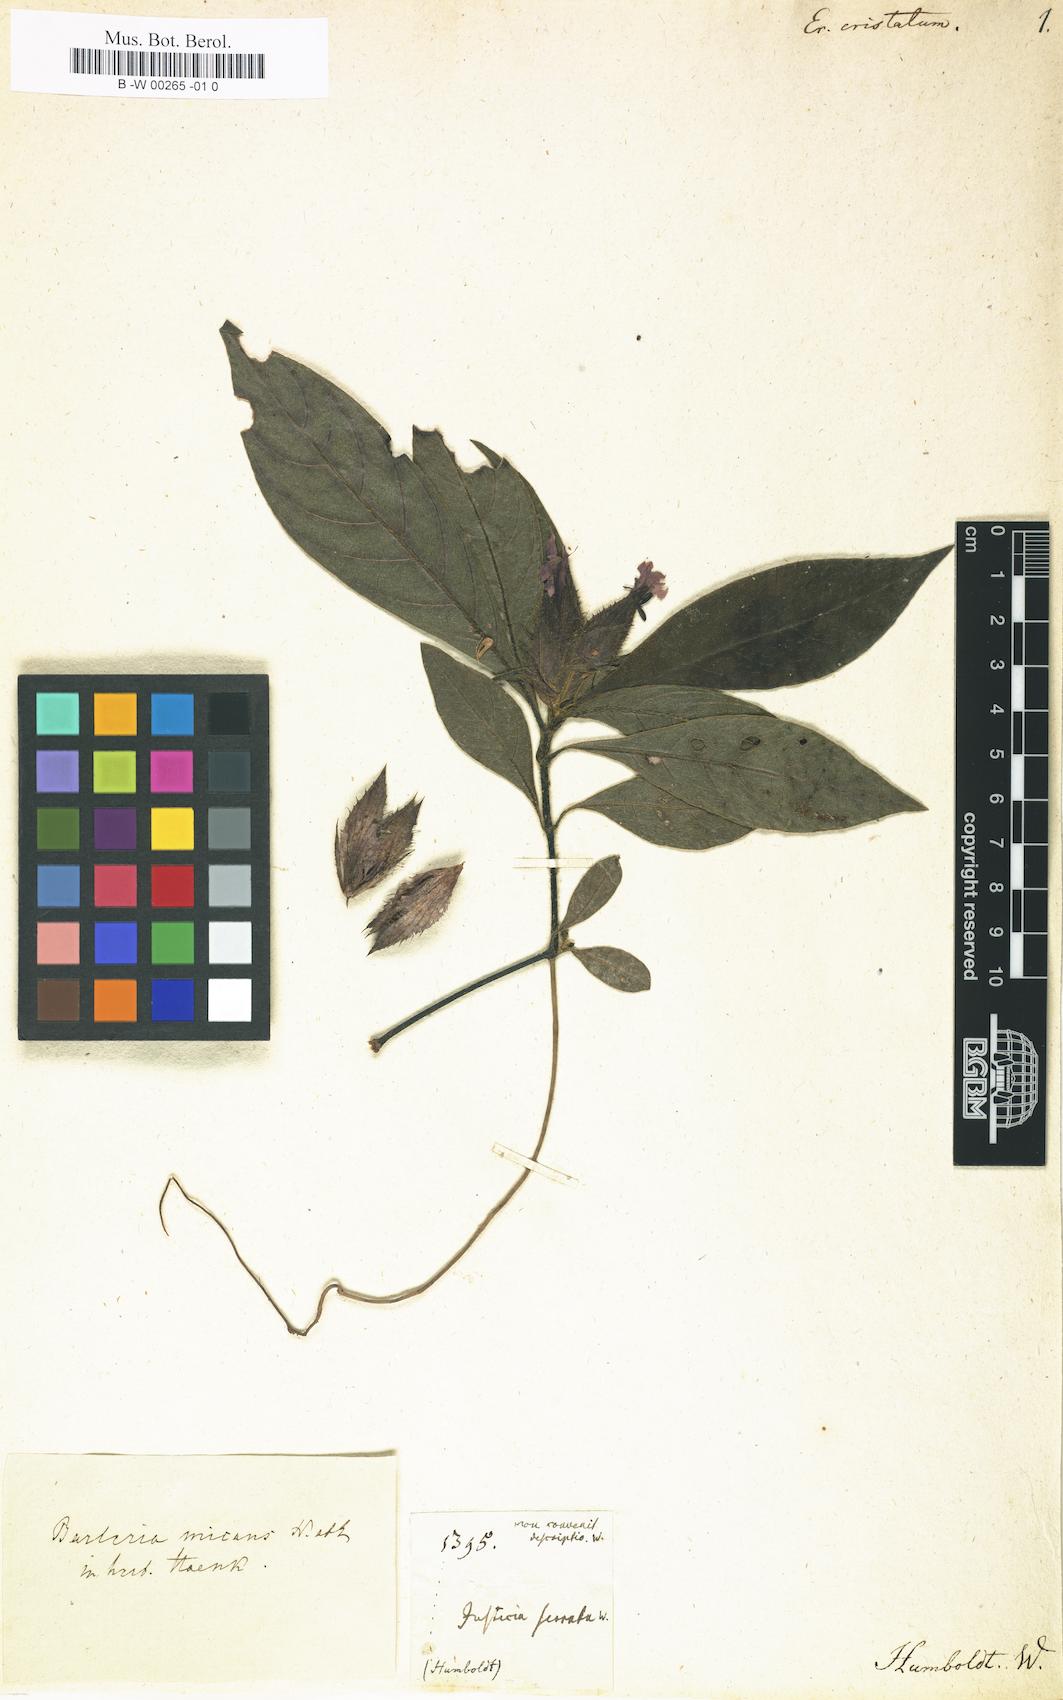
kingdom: Plantae
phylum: Tracheophyta
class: Magnoliopsida
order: Lamiales
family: Acanthaceae
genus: Barleria
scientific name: Barleria oenotheroides
